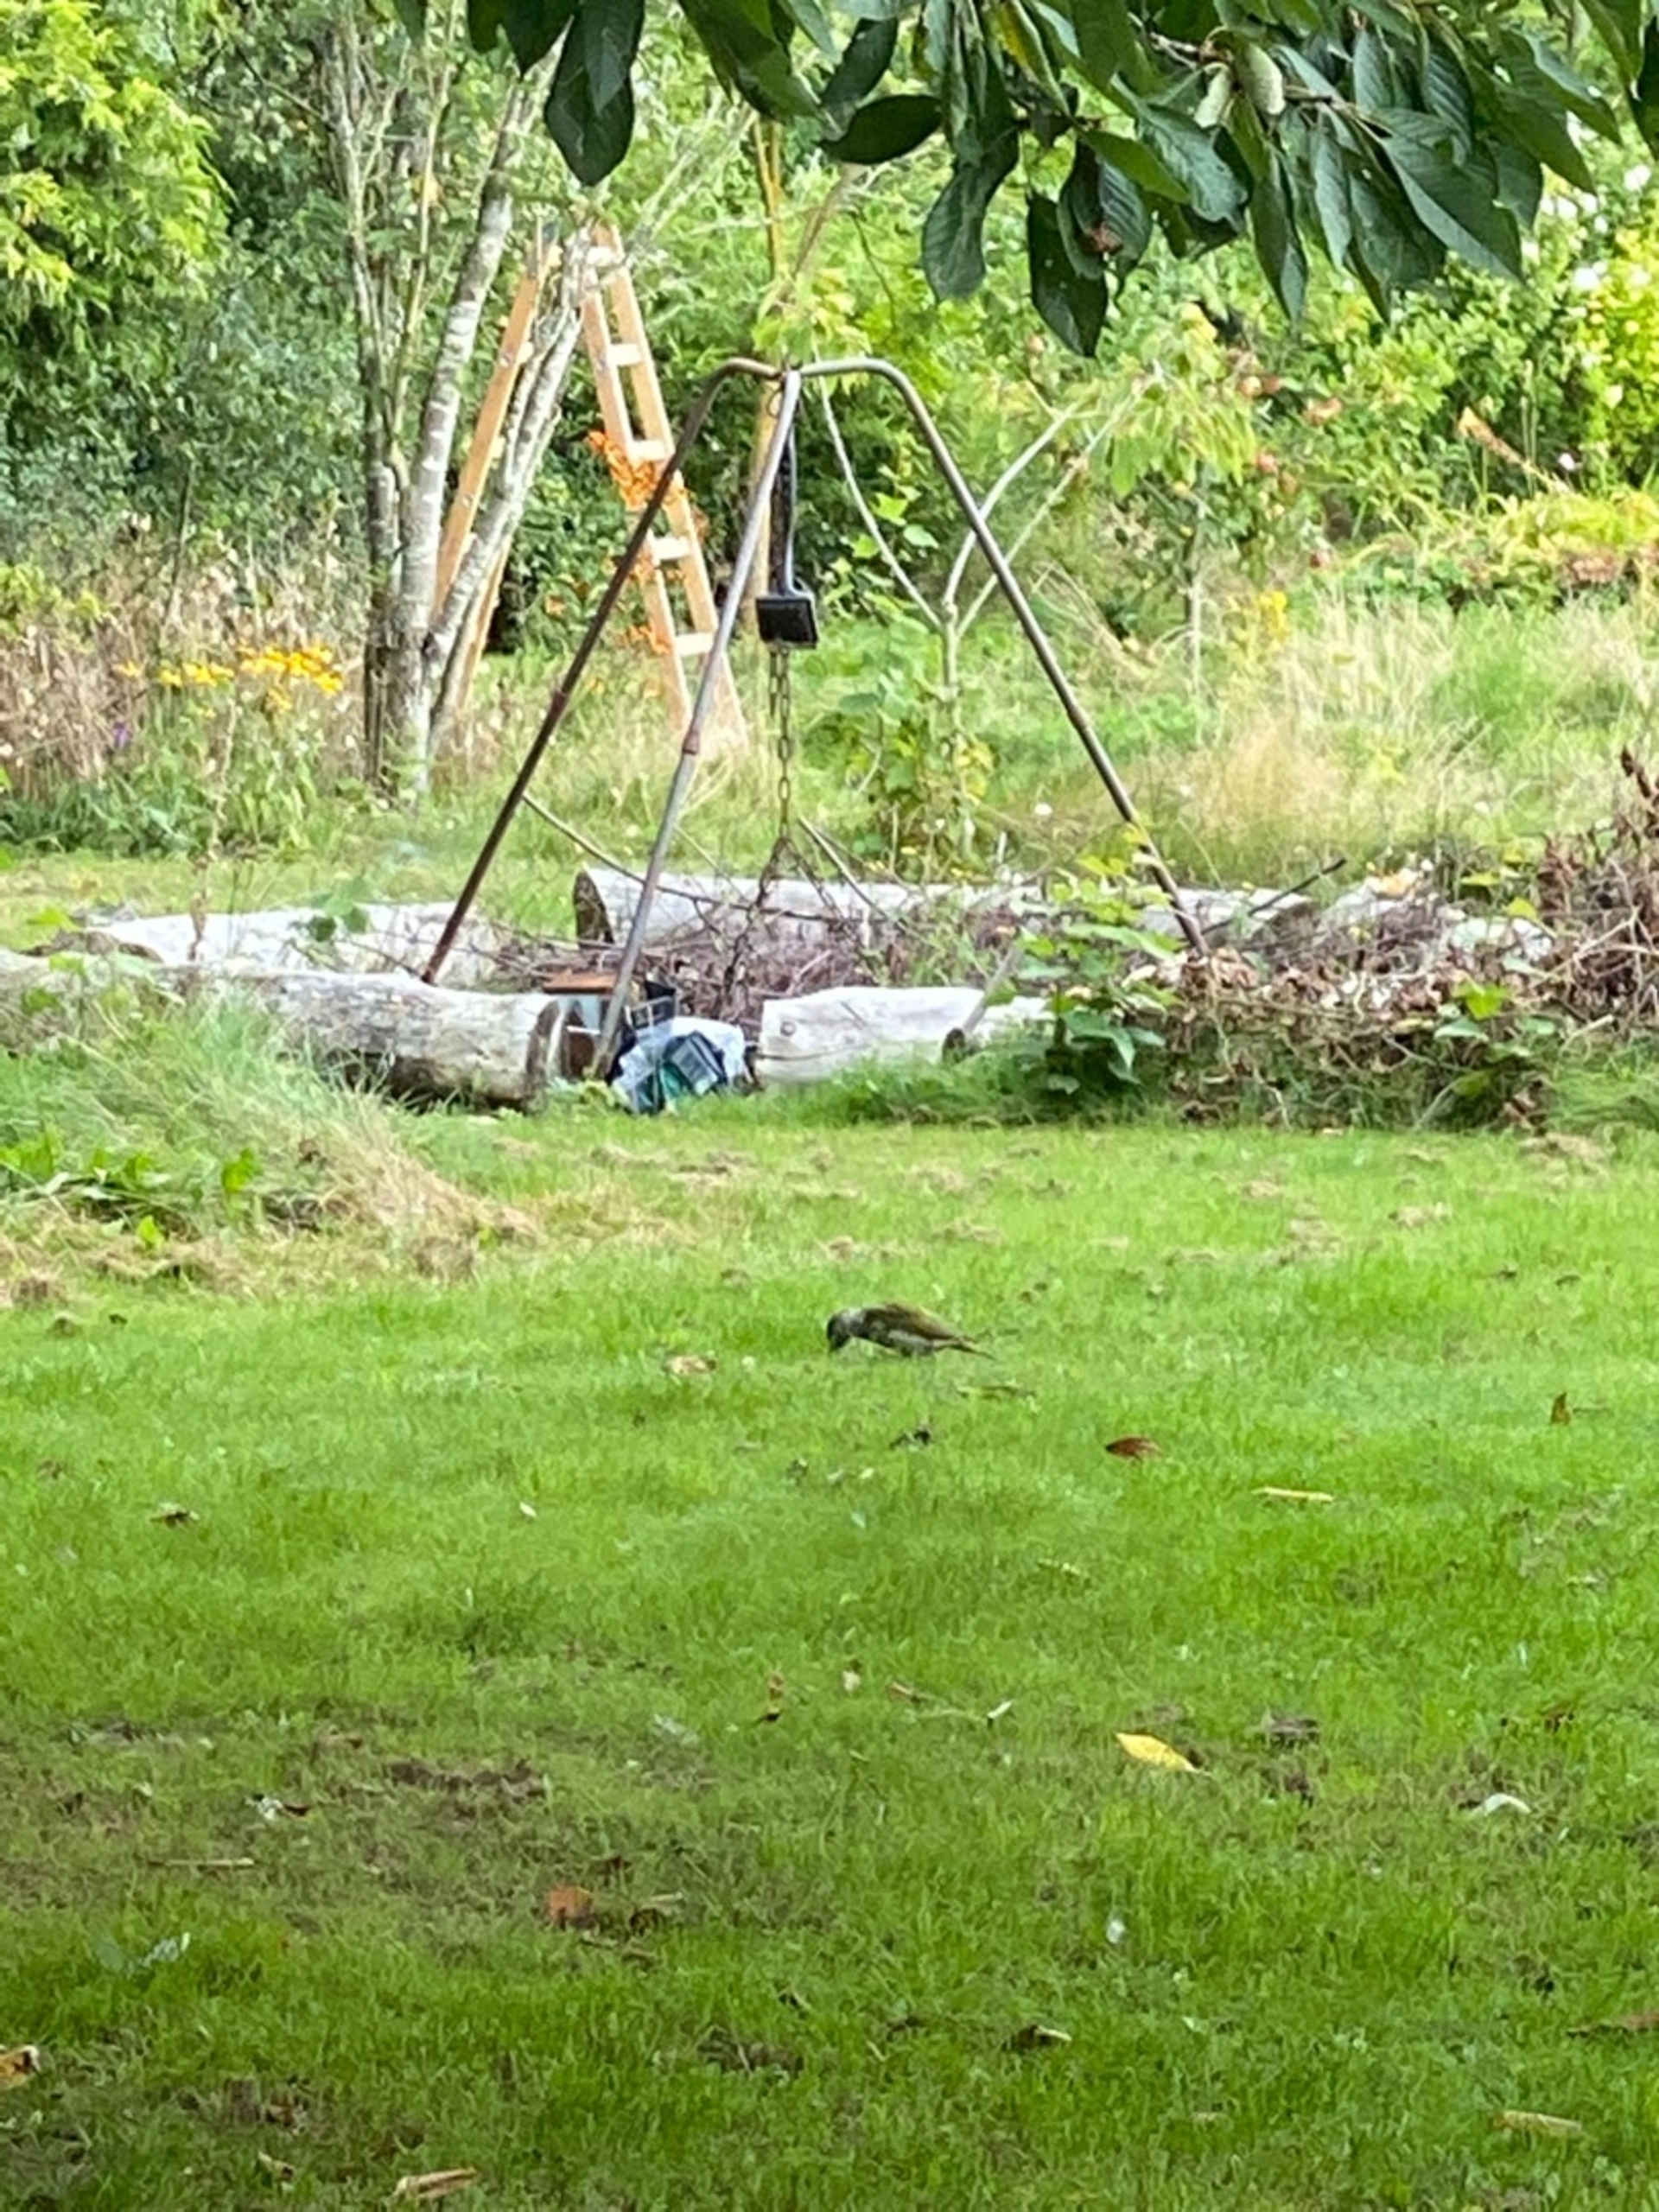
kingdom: Animalia
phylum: Chordata
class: Aves
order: Piciformes
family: Picidae
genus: Picus
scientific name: Picus viridis
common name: Grønspætte
